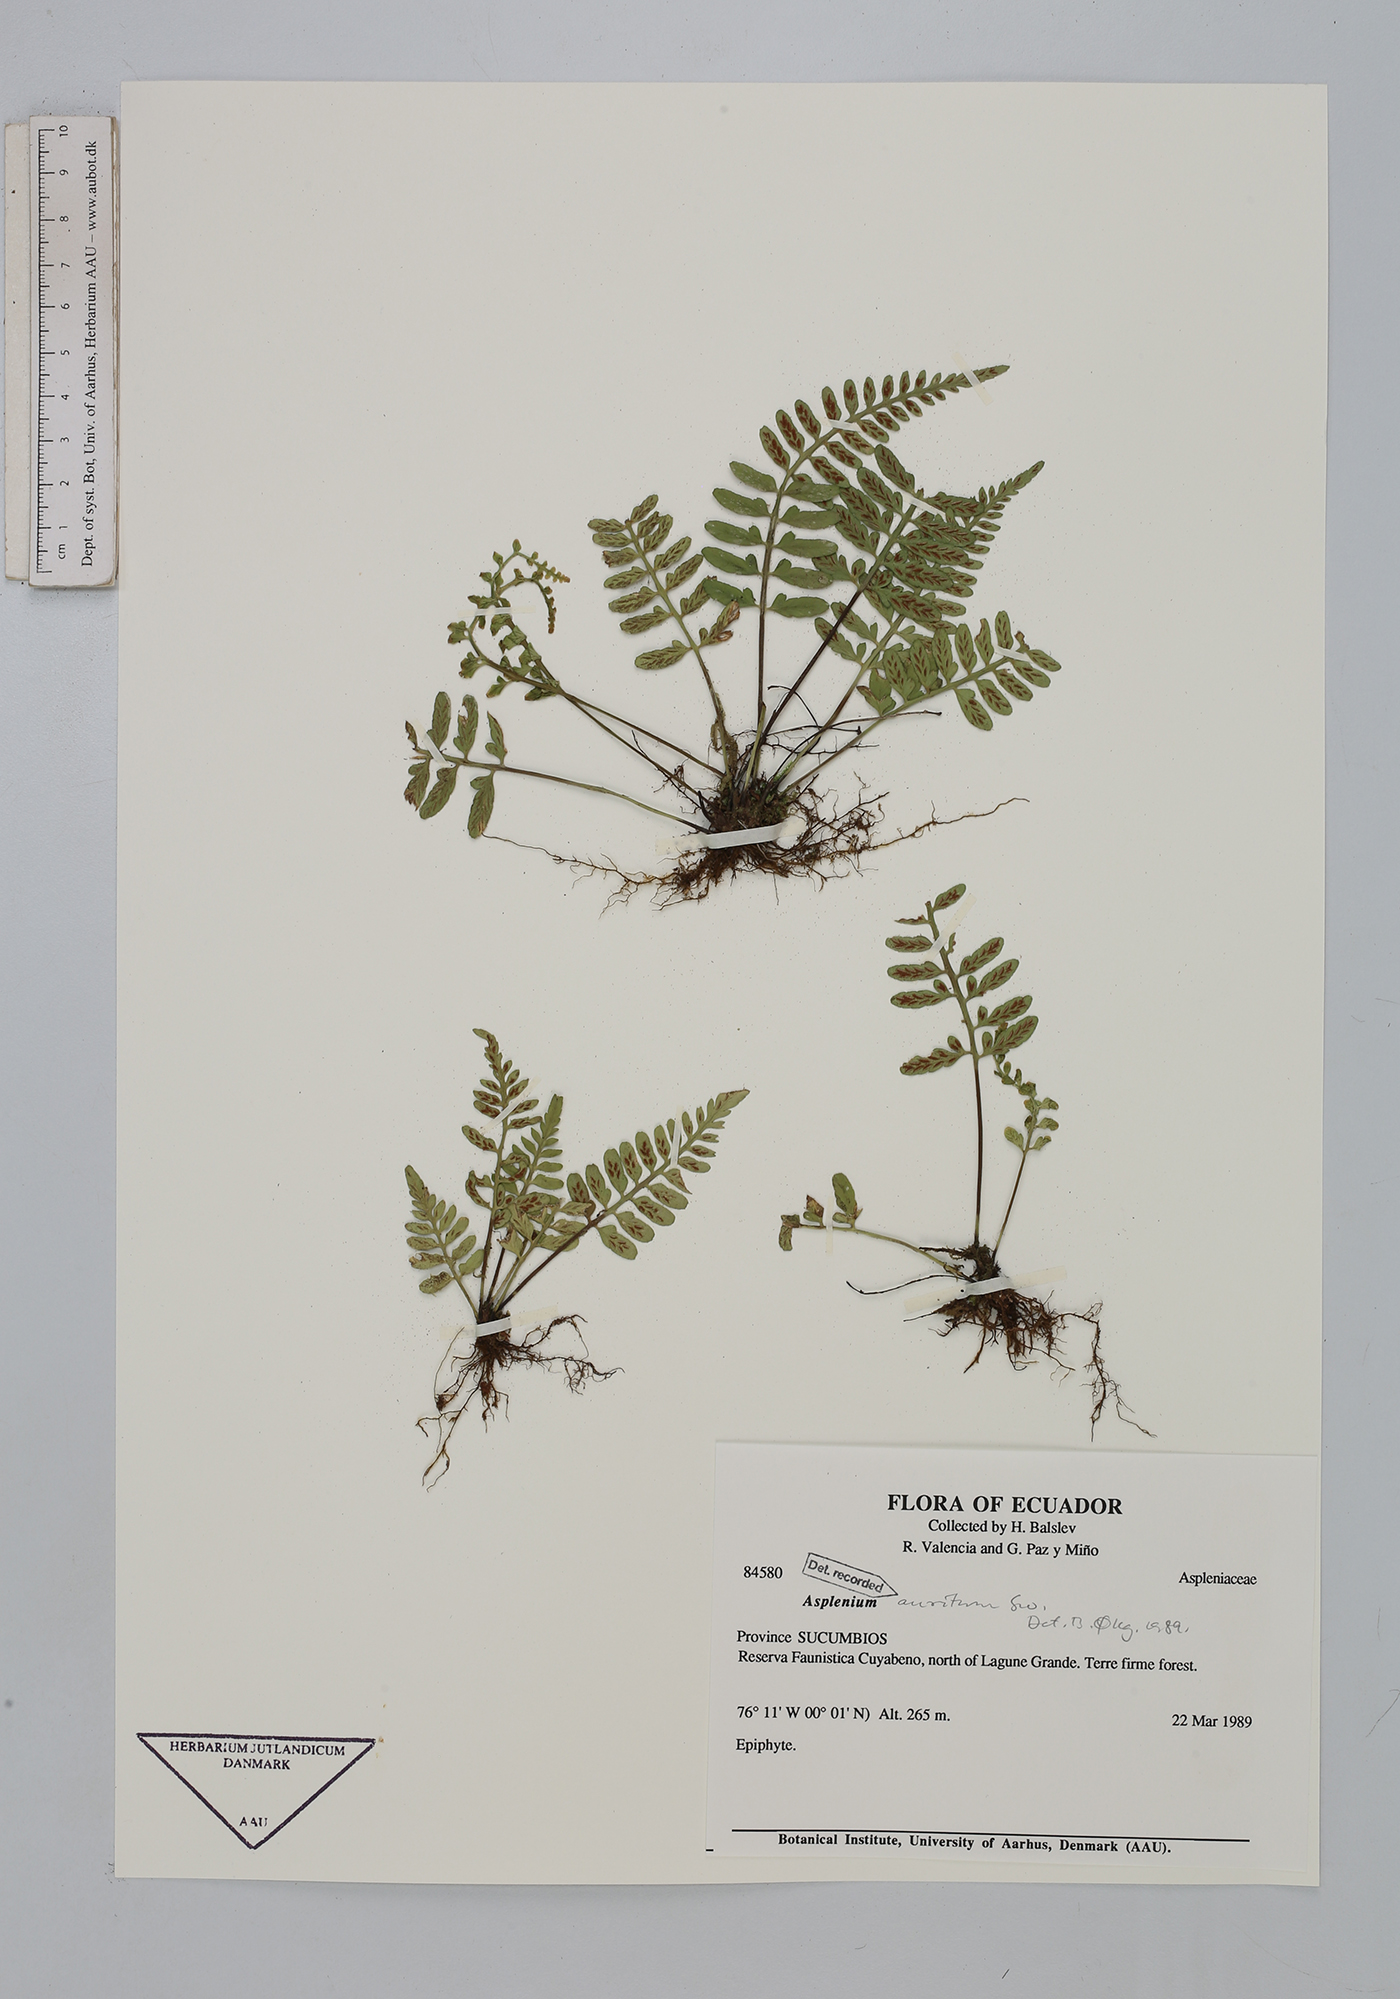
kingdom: Plantae
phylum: Tracheophyta
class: Polypodiopsida
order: Polypodiales
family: Aspleniaceae
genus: Asplenium
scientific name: Asplenium auritum
